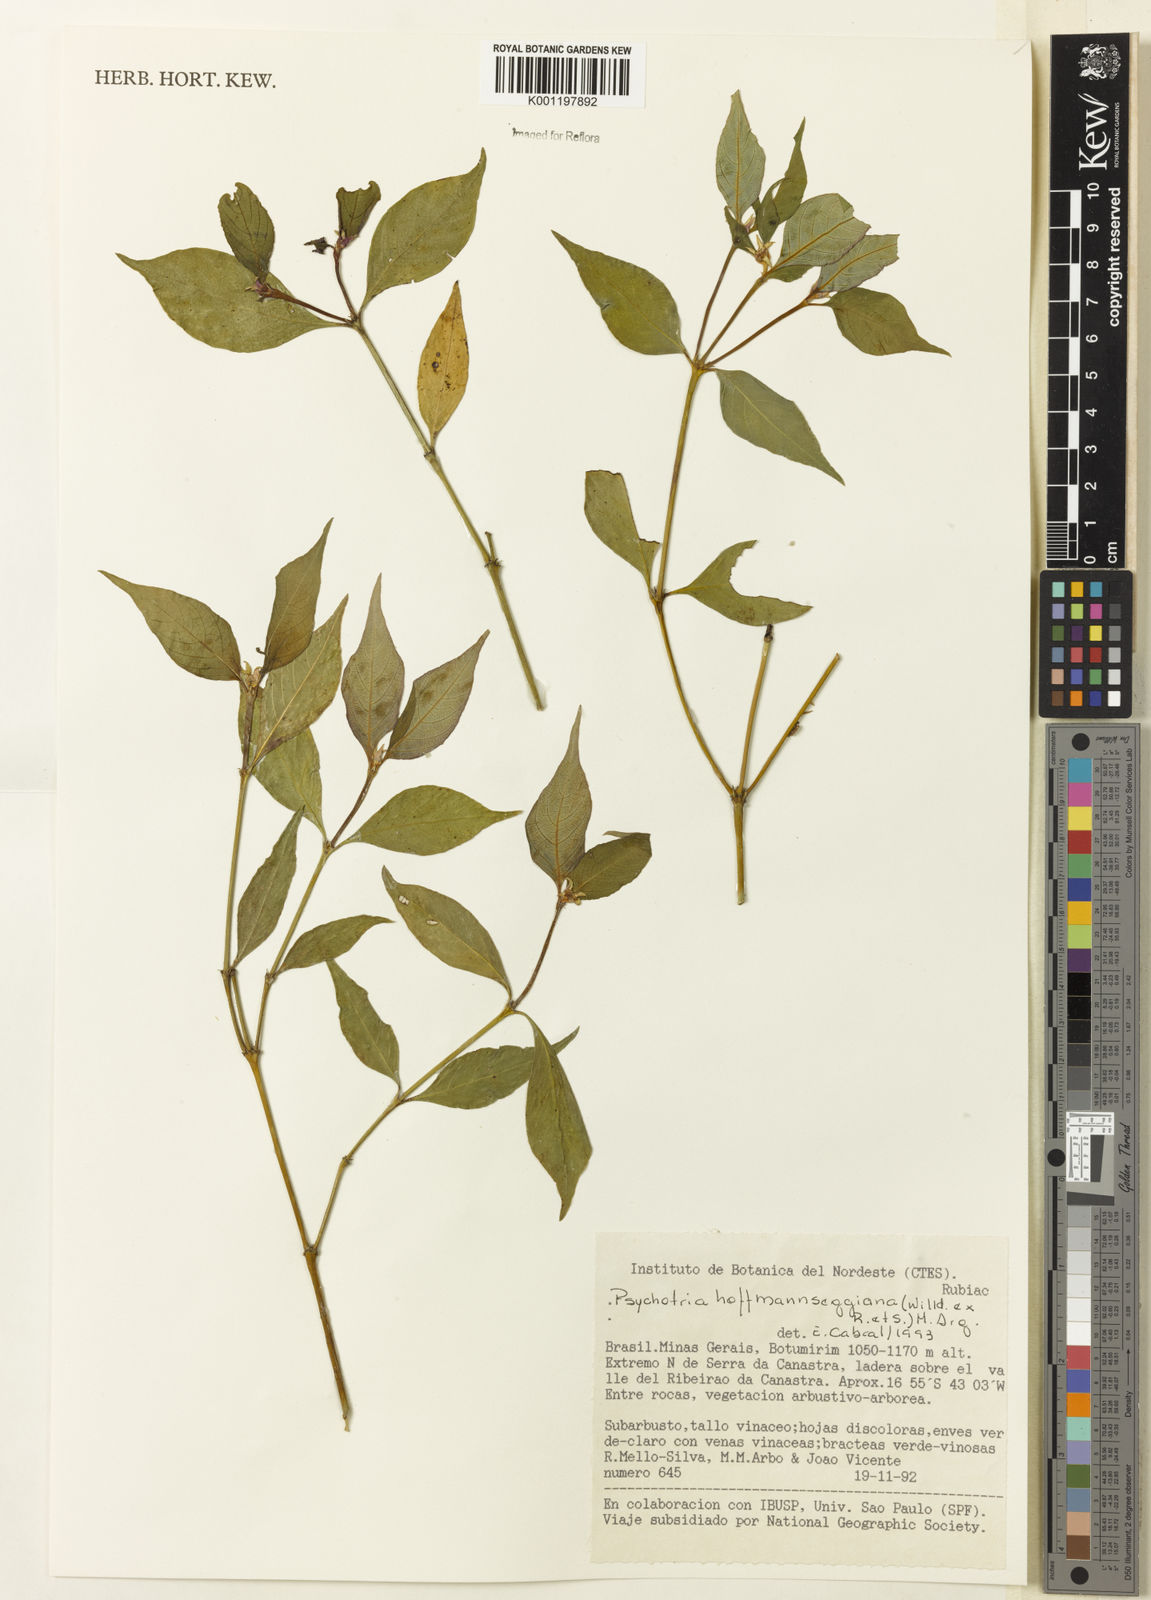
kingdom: Plantae
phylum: Tracheophyta
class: Magnoliopsida
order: Gentianales
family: Rubiaceae
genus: Psychotria
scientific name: Psychotria
